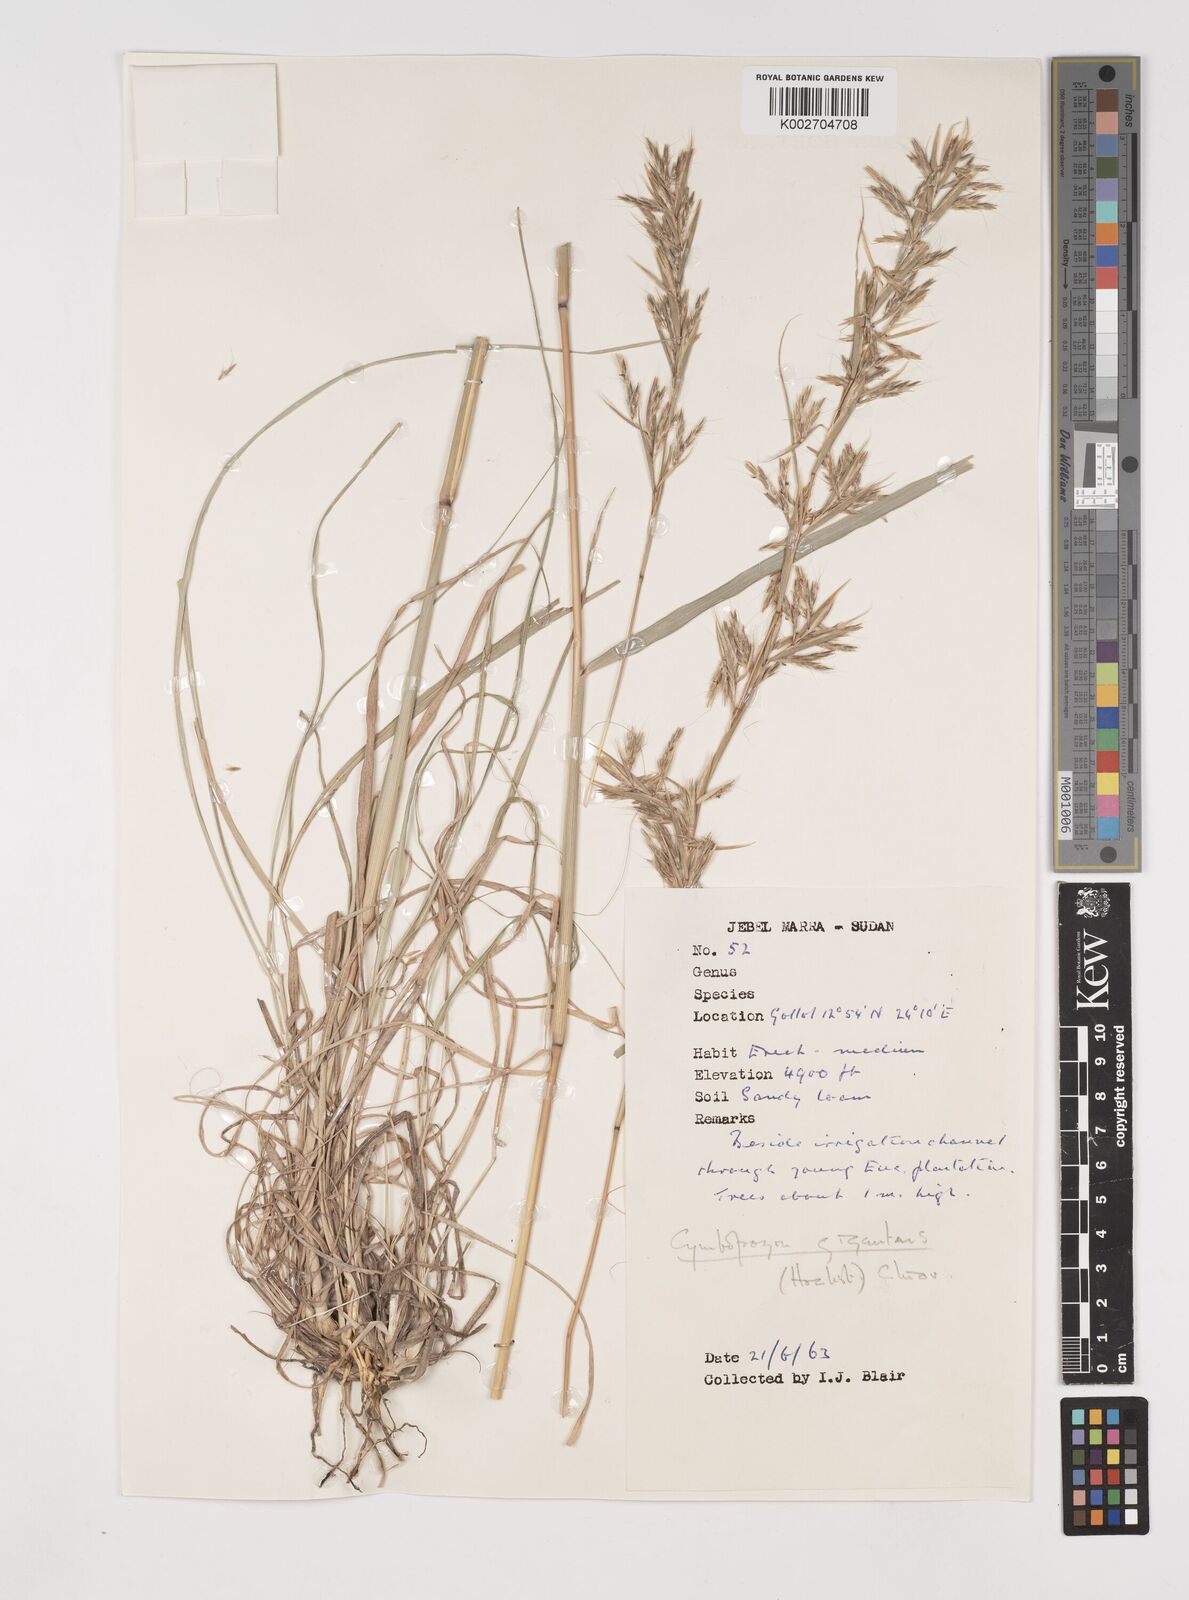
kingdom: Plantae
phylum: Tracheophyta
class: Liliopsida
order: Poales
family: Poaceae
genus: Cymbopogon
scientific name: Cymbopogon
